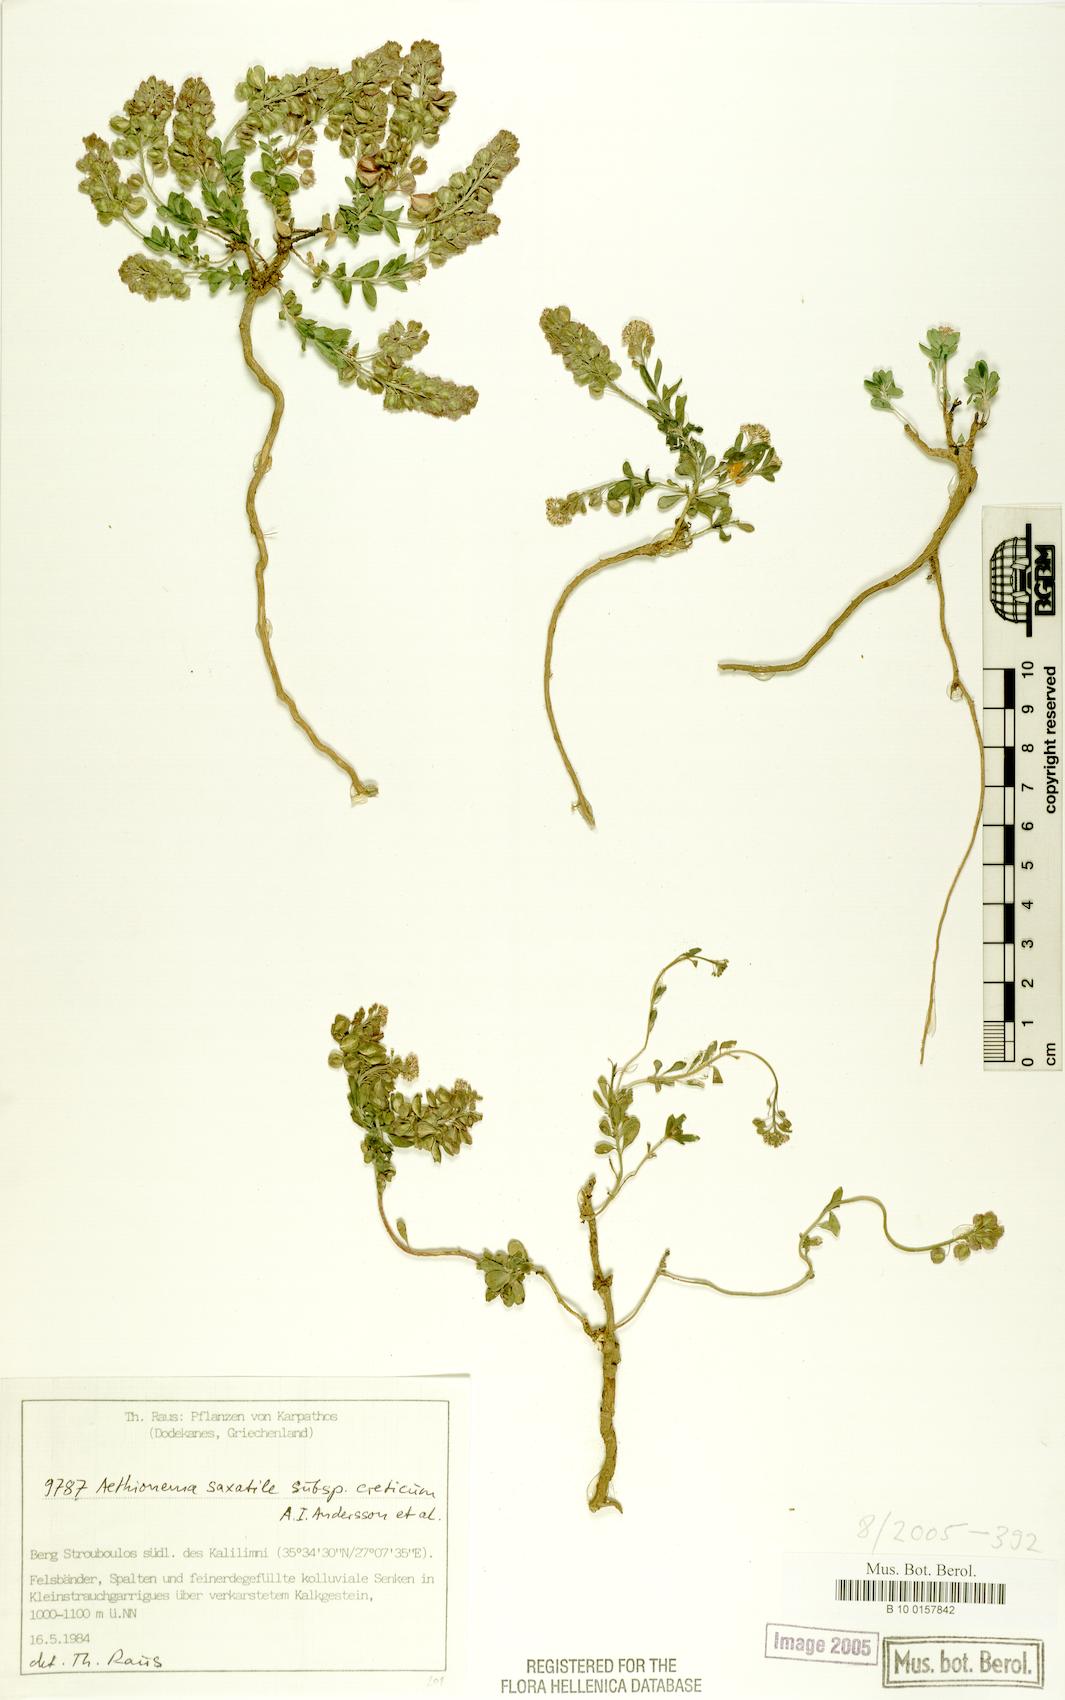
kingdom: Plantae
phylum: Tracheophyta
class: Magnoliopsida
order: Brassicales
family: Brassicaceae
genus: Aethionema
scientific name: Aethionema saxatile
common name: Burnt candytuft
